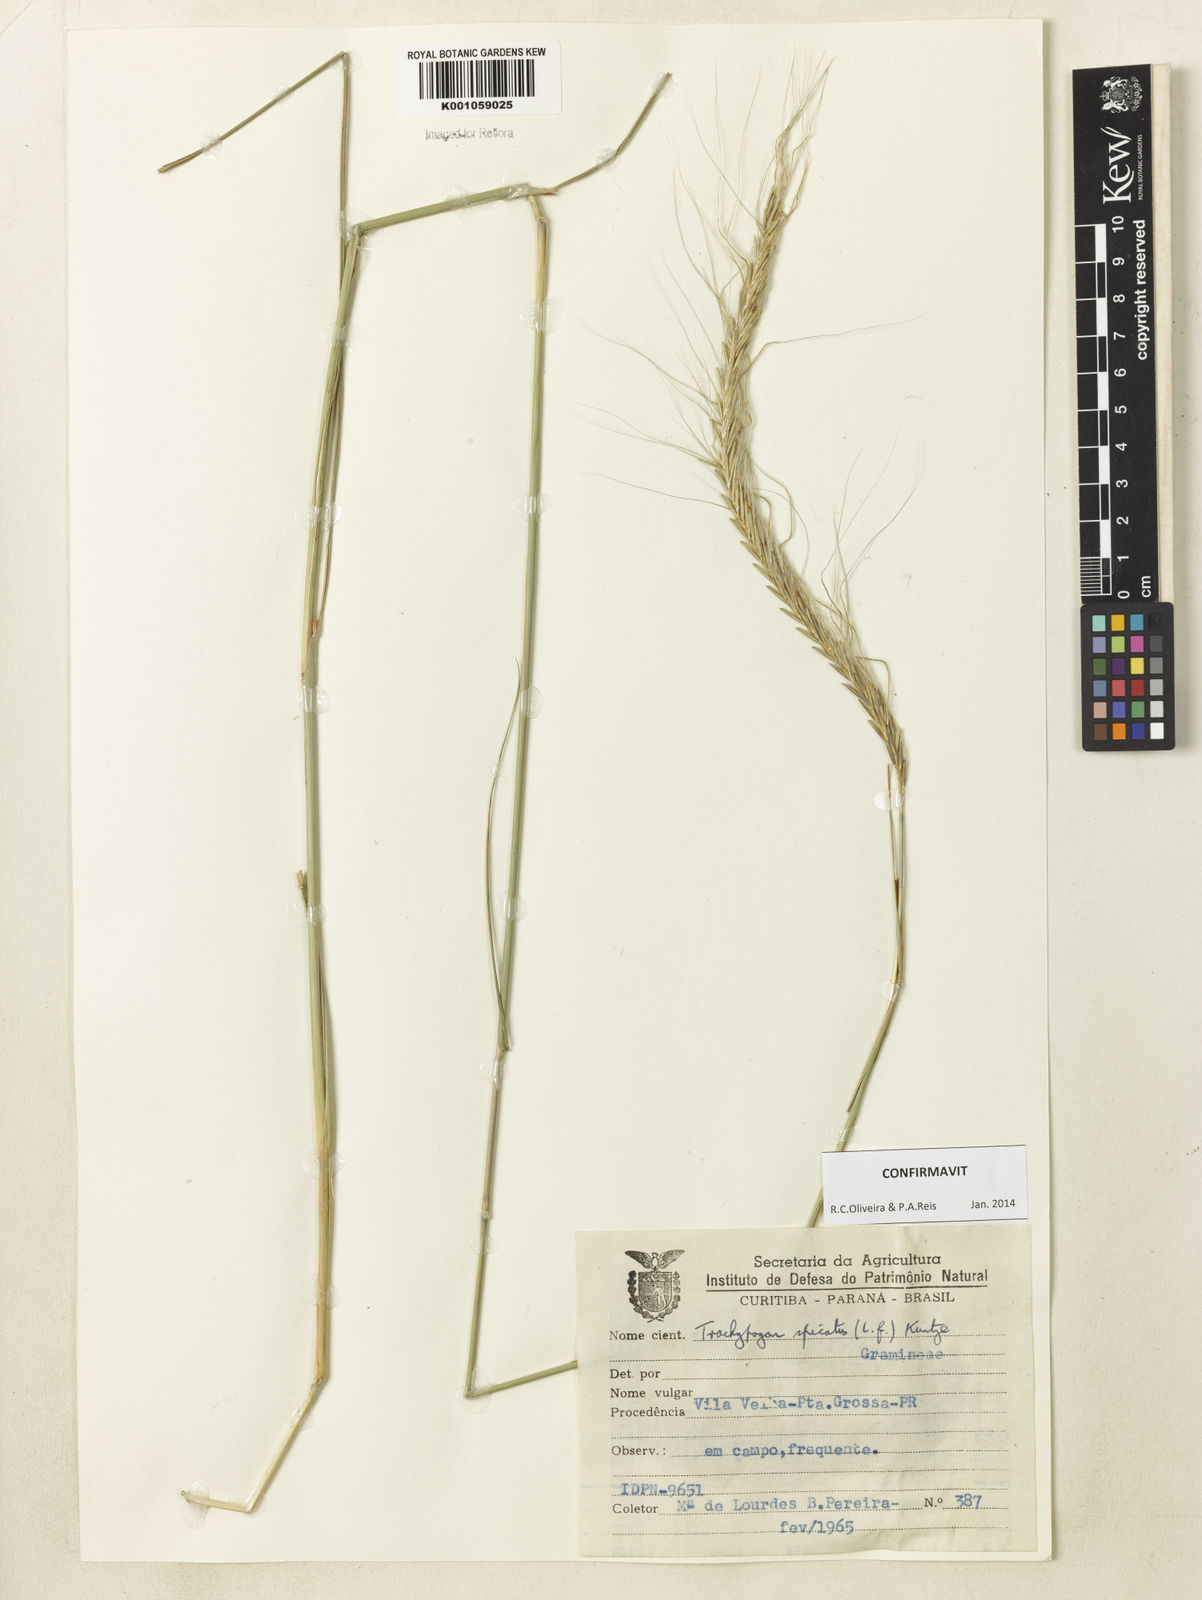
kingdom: Plantae
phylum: Tracheophyta
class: Liliopsida
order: Poales
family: Poaceae
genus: Trachypogon
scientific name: Trachypogon spicatus
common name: Crinkle-awn
